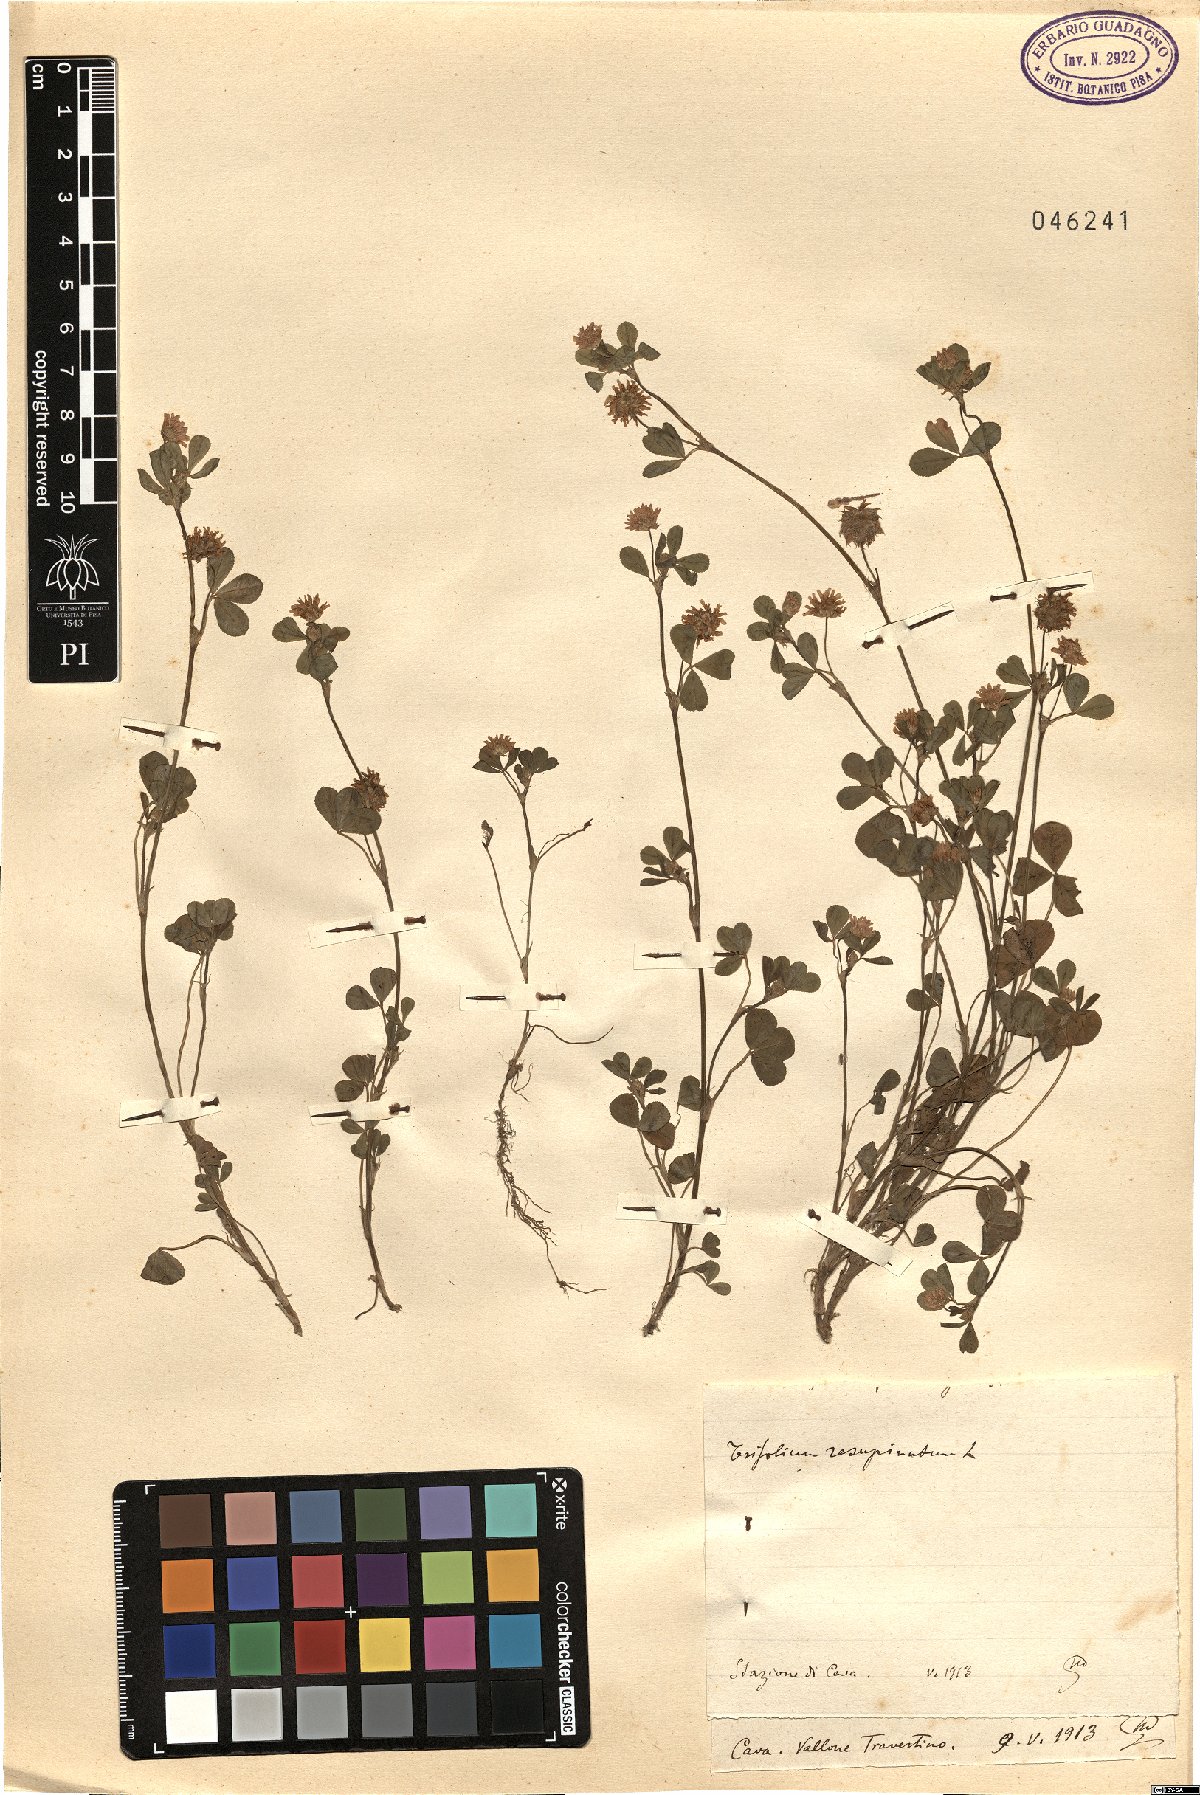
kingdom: Plantae
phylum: Tracheophyta
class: Magnoliopsida
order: Fabales
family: Fabaceae
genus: Trifolium
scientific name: Trifolium resupinatum
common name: Reversed clover
